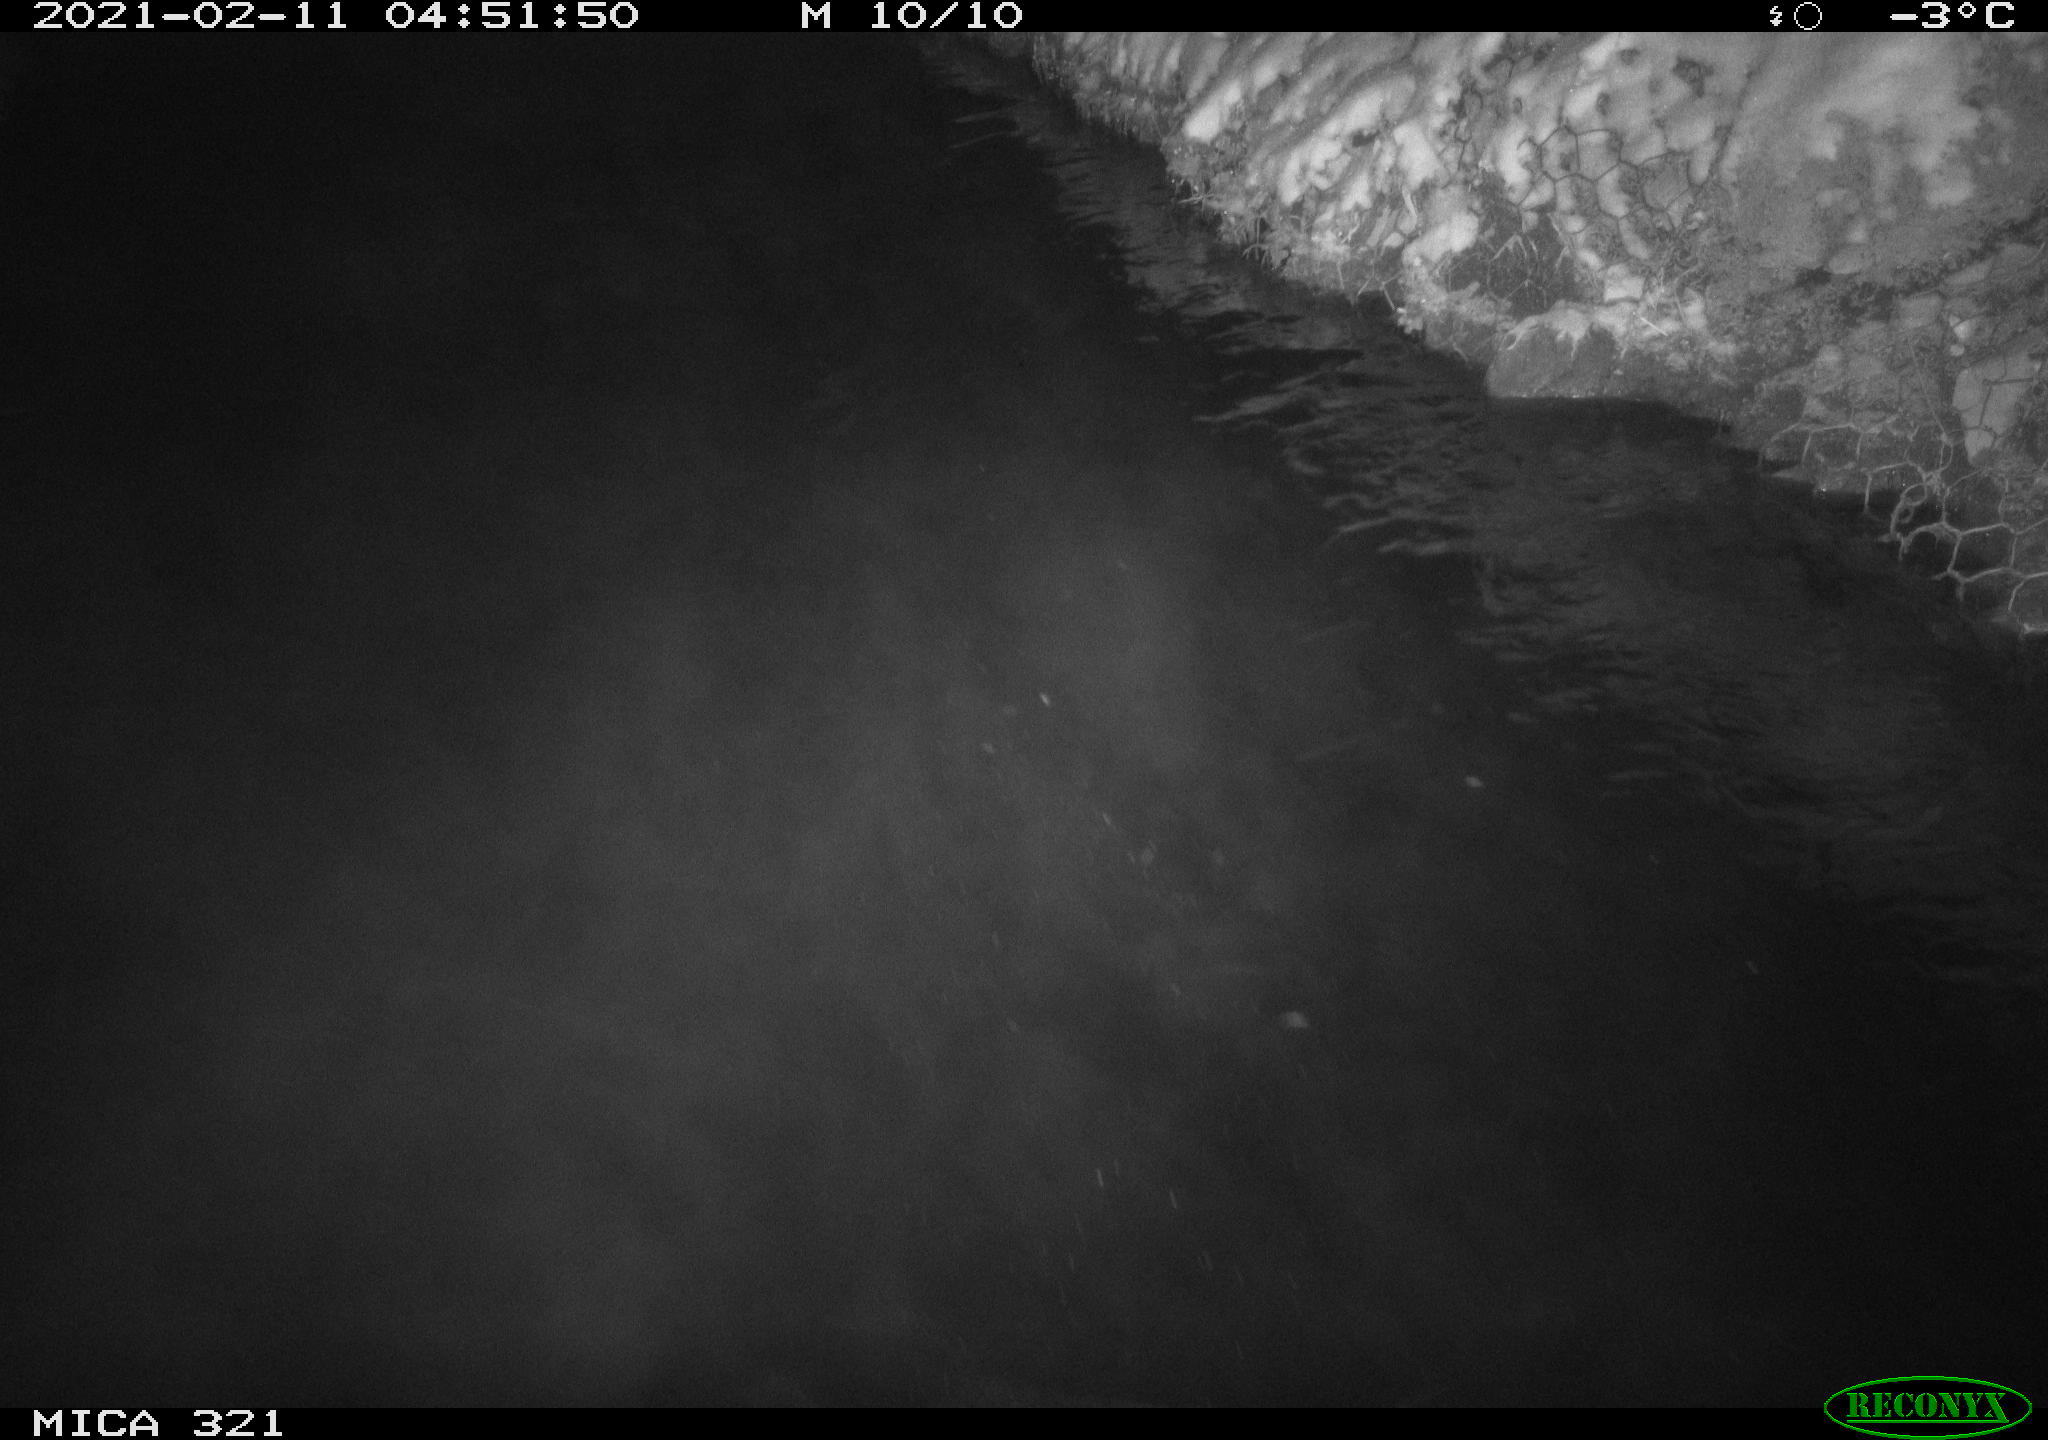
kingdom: Animalia
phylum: Chordata
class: Aves
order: Anseriformes
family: Anatidae
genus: Anas
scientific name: Anas platyrhynchos
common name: Mallard
